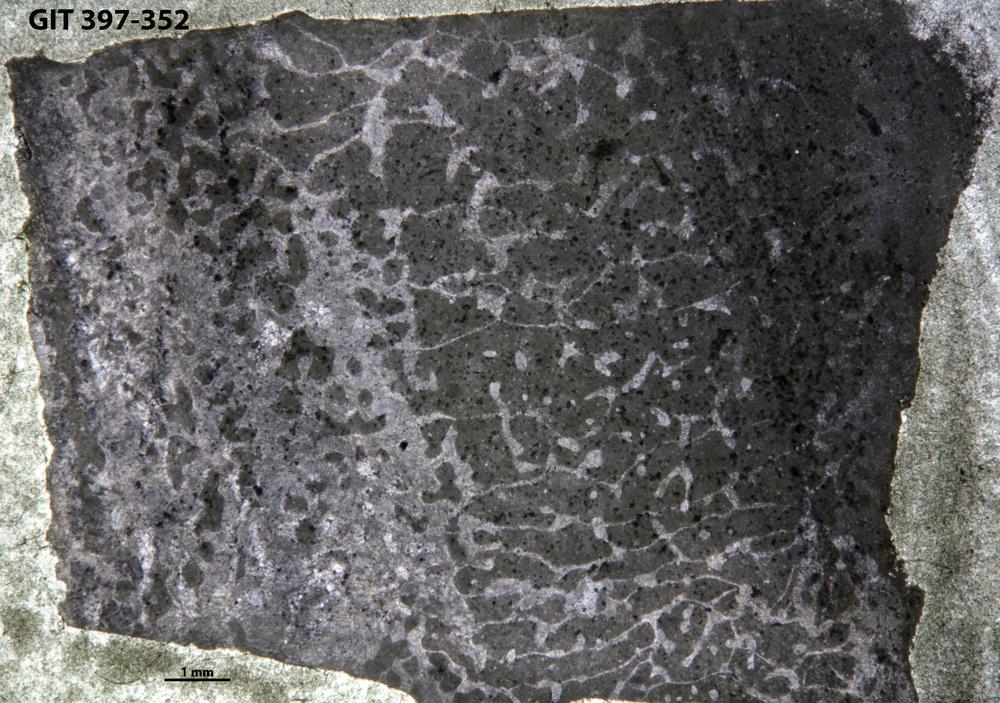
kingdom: Animalia
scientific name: Animalia
